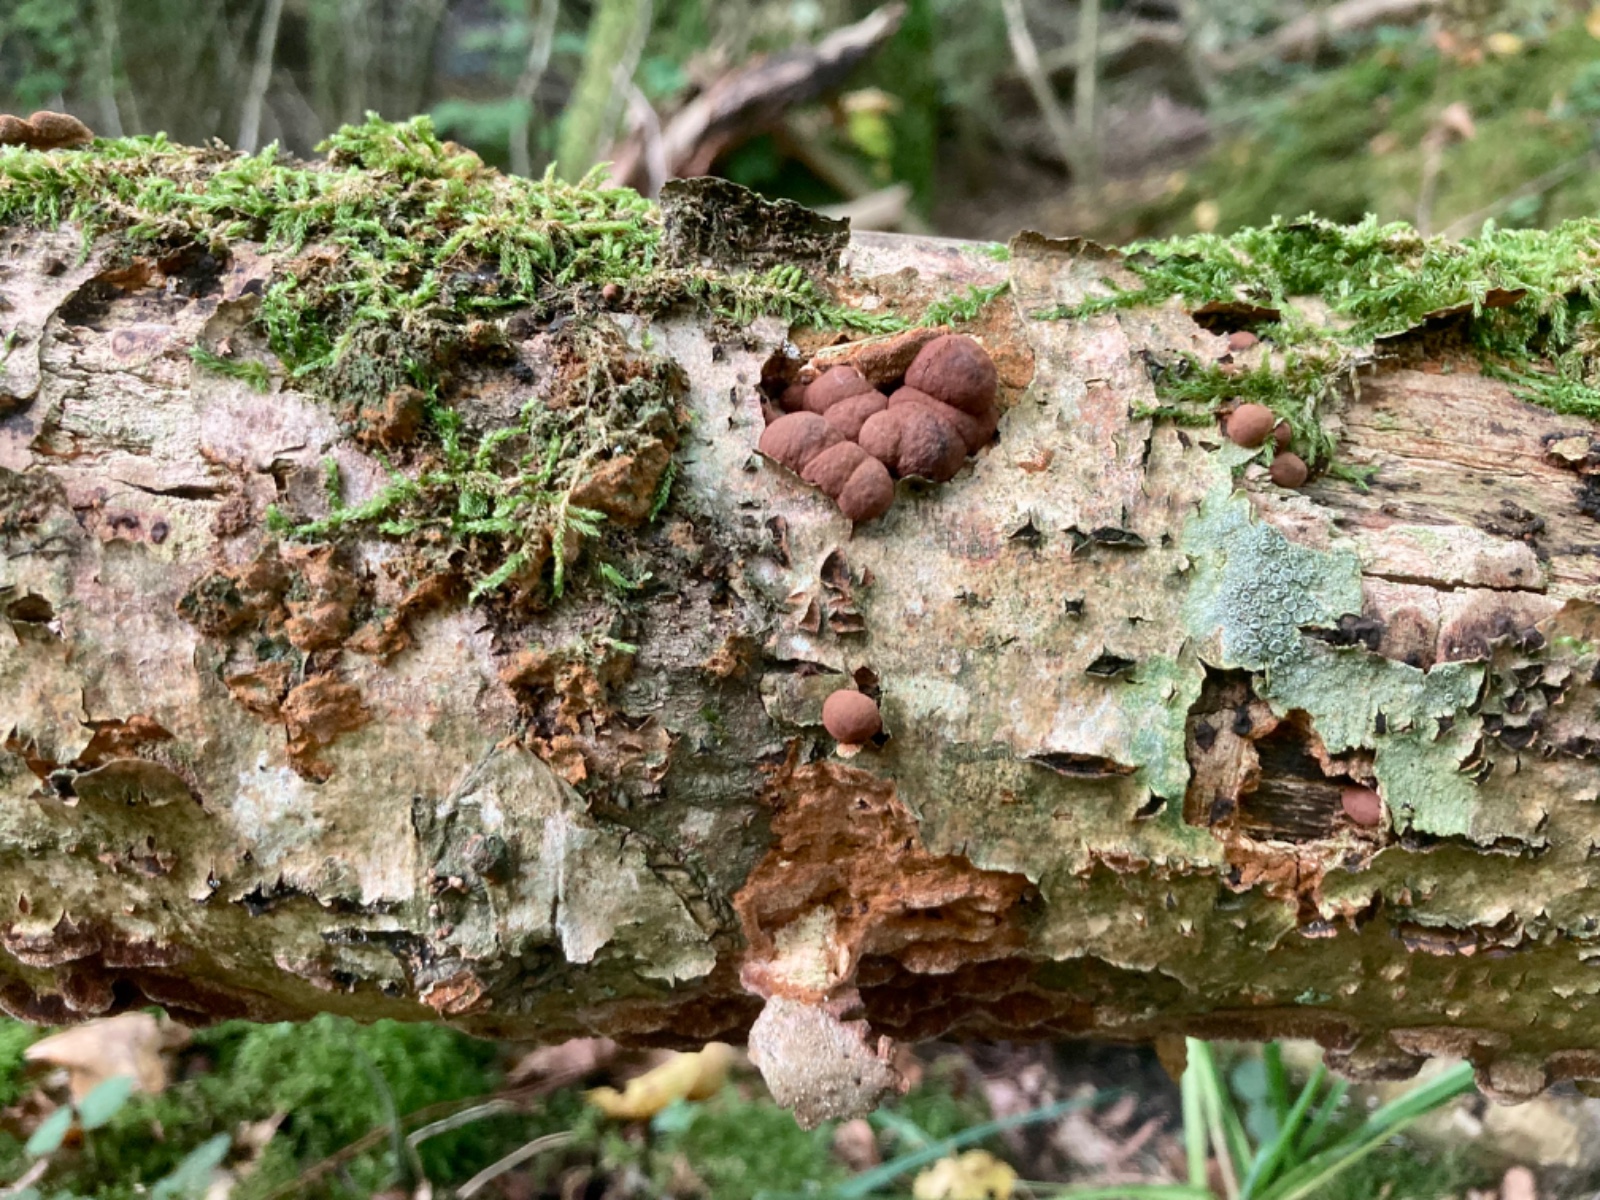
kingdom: Fungi
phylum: Ascomycota
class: Sordariomycetes
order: Xylariales
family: Hypoxylaceae
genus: Hypoxylon
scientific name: Hypoxylon howeanum
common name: halvkugleformet kulbær
